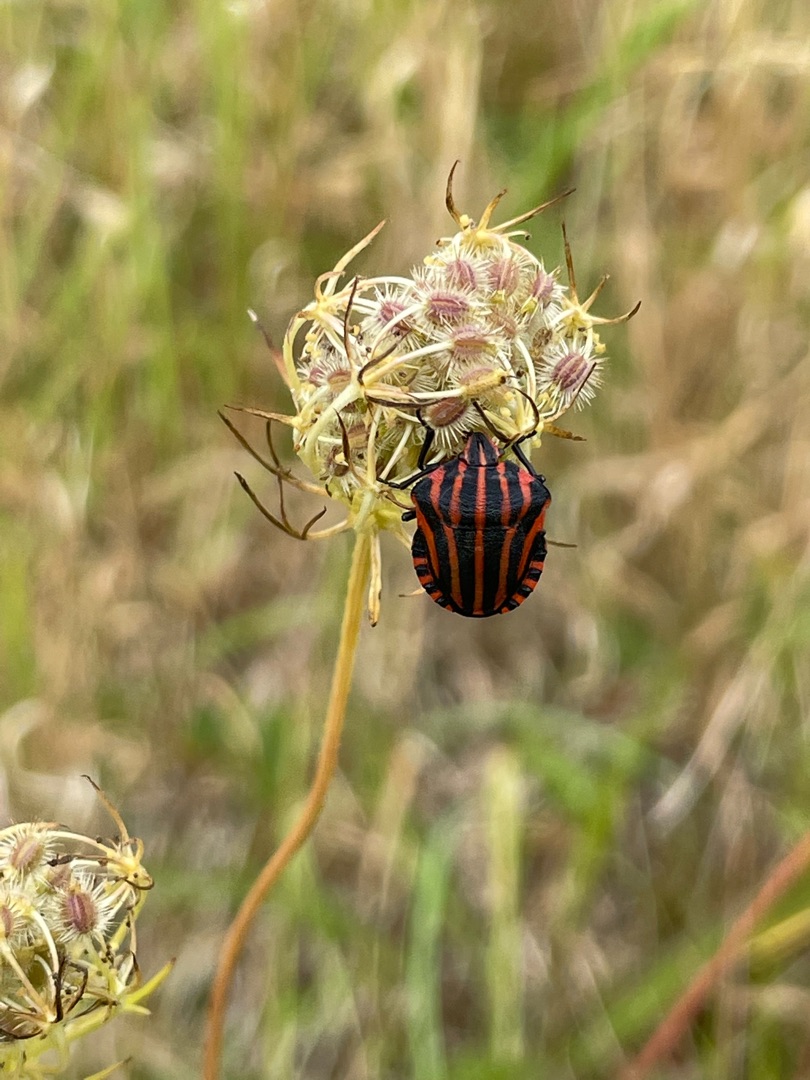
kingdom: Animalia
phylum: Arthropoda
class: Insecta
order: Hemiptera
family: Pentatomidae
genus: Graphosoma
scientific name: Graphosoma italicum
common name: Stribetæge
